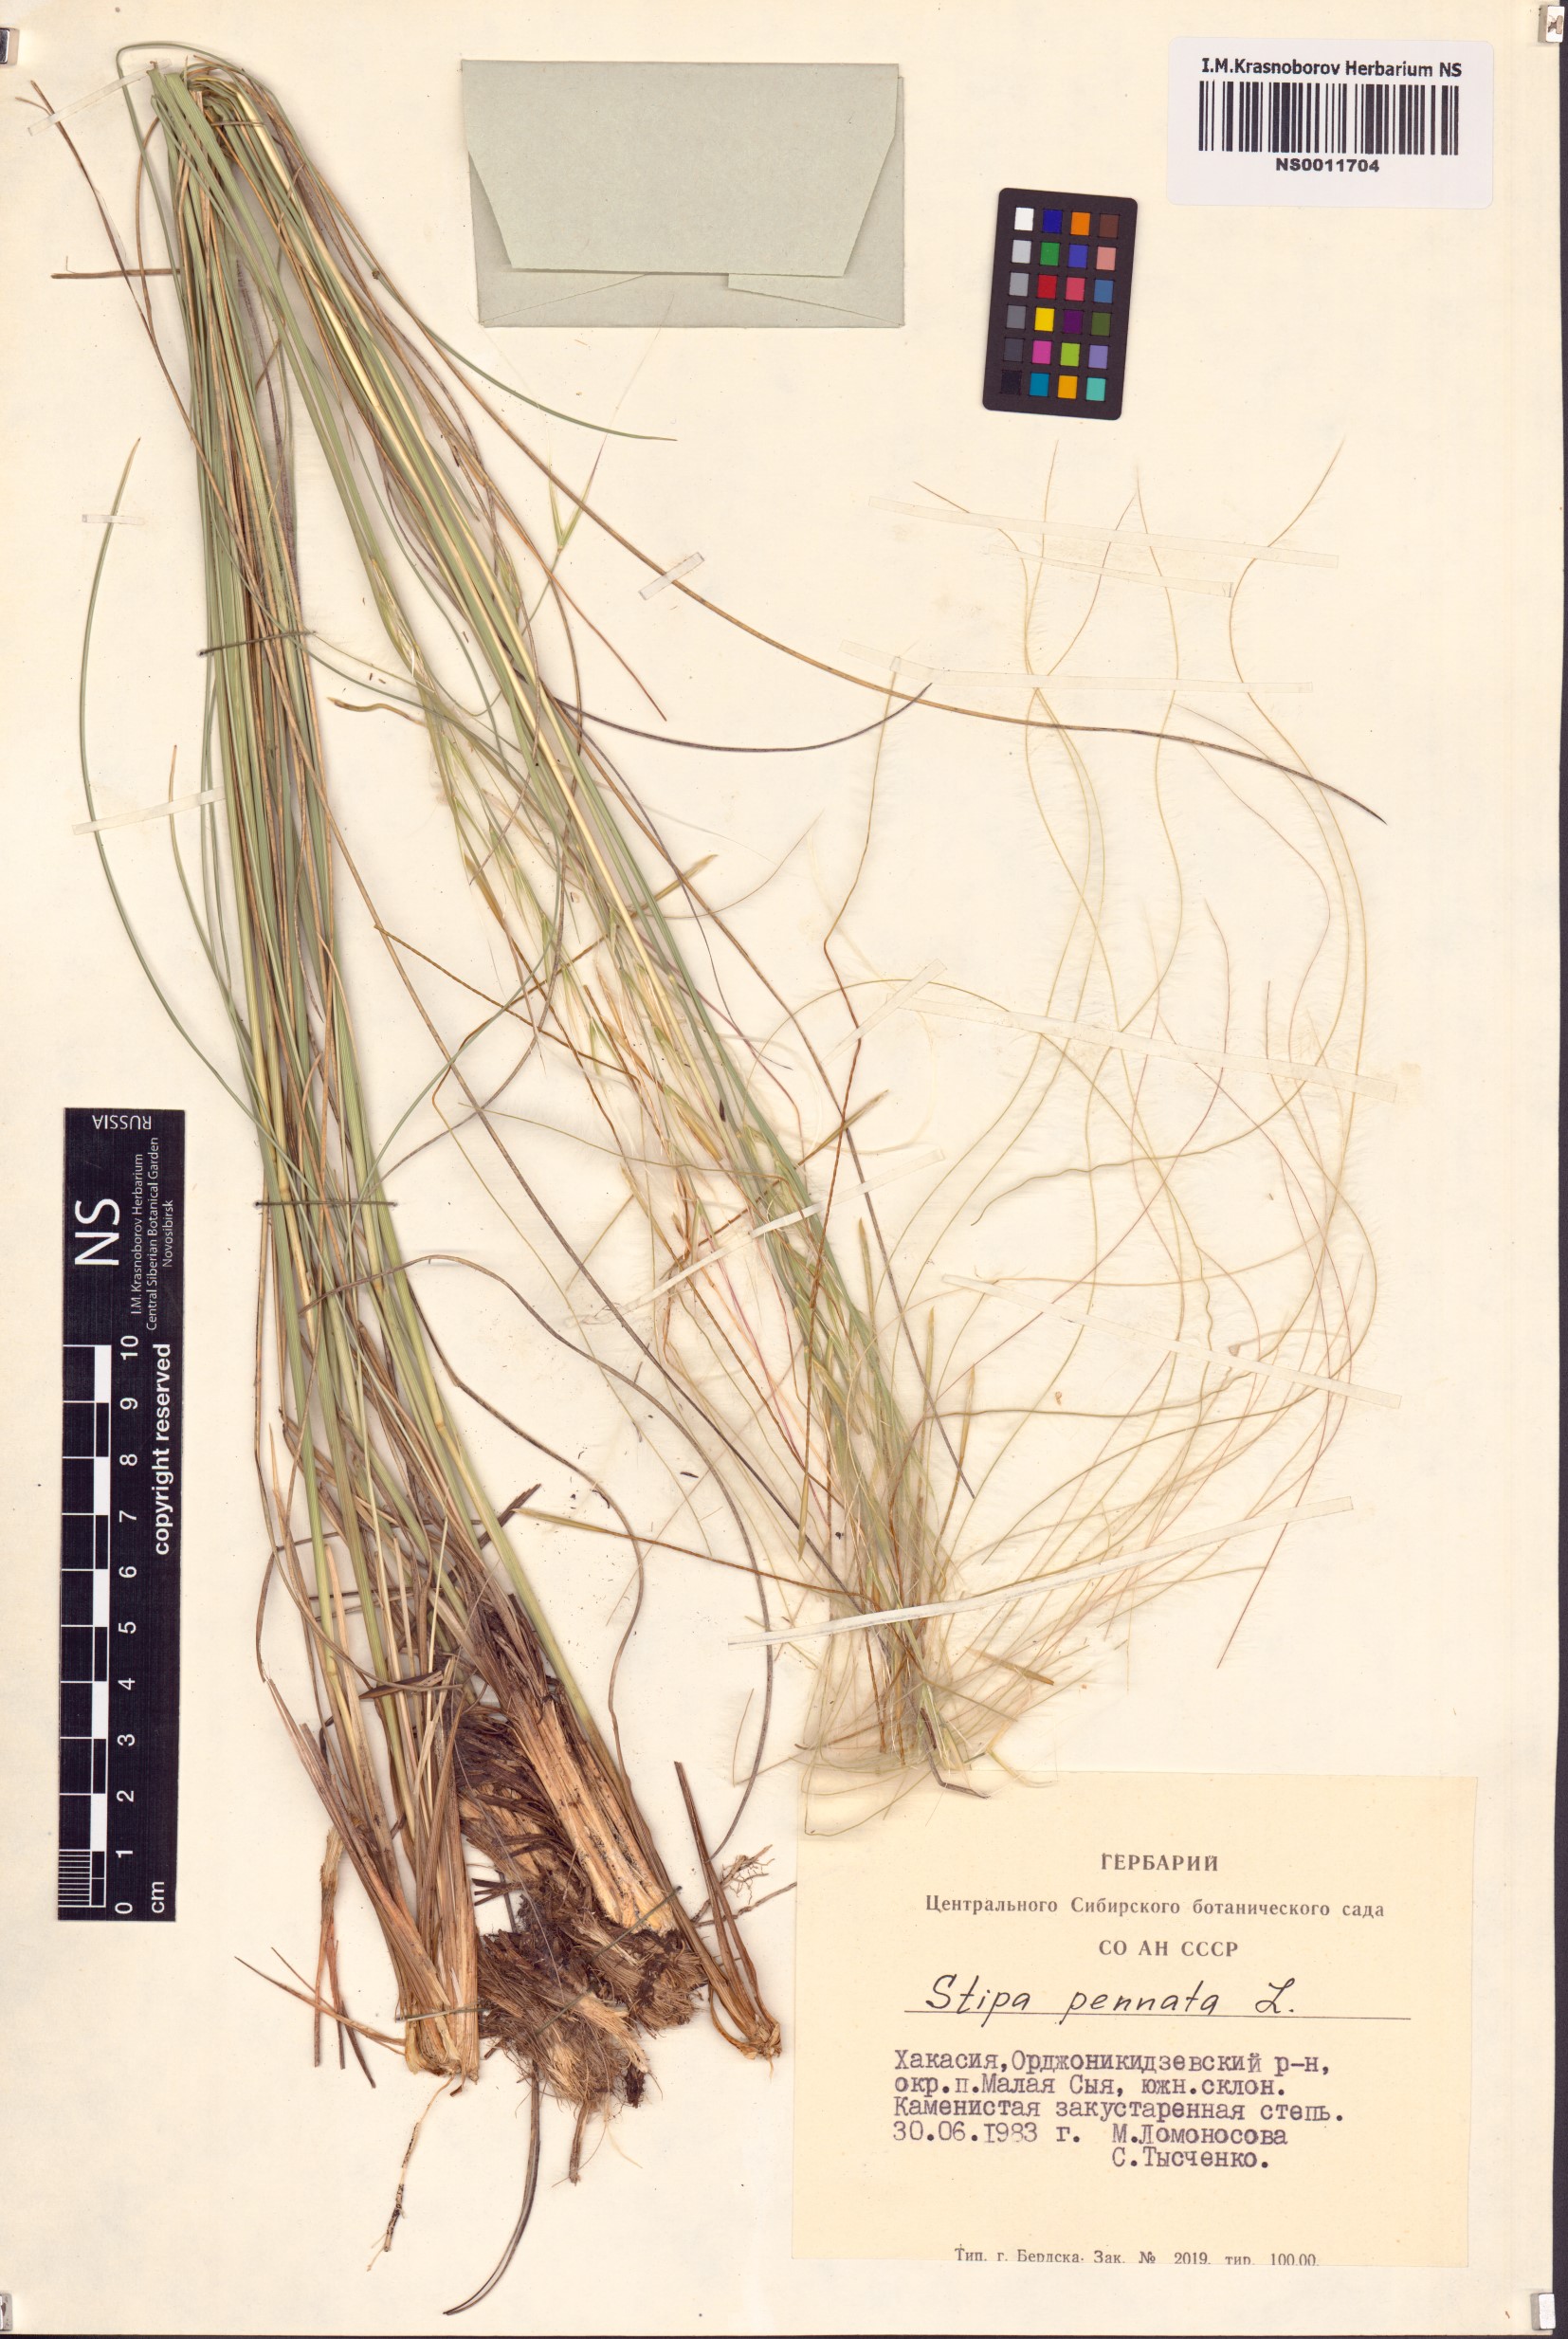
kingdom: Plantae
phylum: Tracheophyta
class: Liliopsida
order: Poales
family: Poaceae
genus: Stipa
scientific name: Stipa pennata
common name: European feather grass
